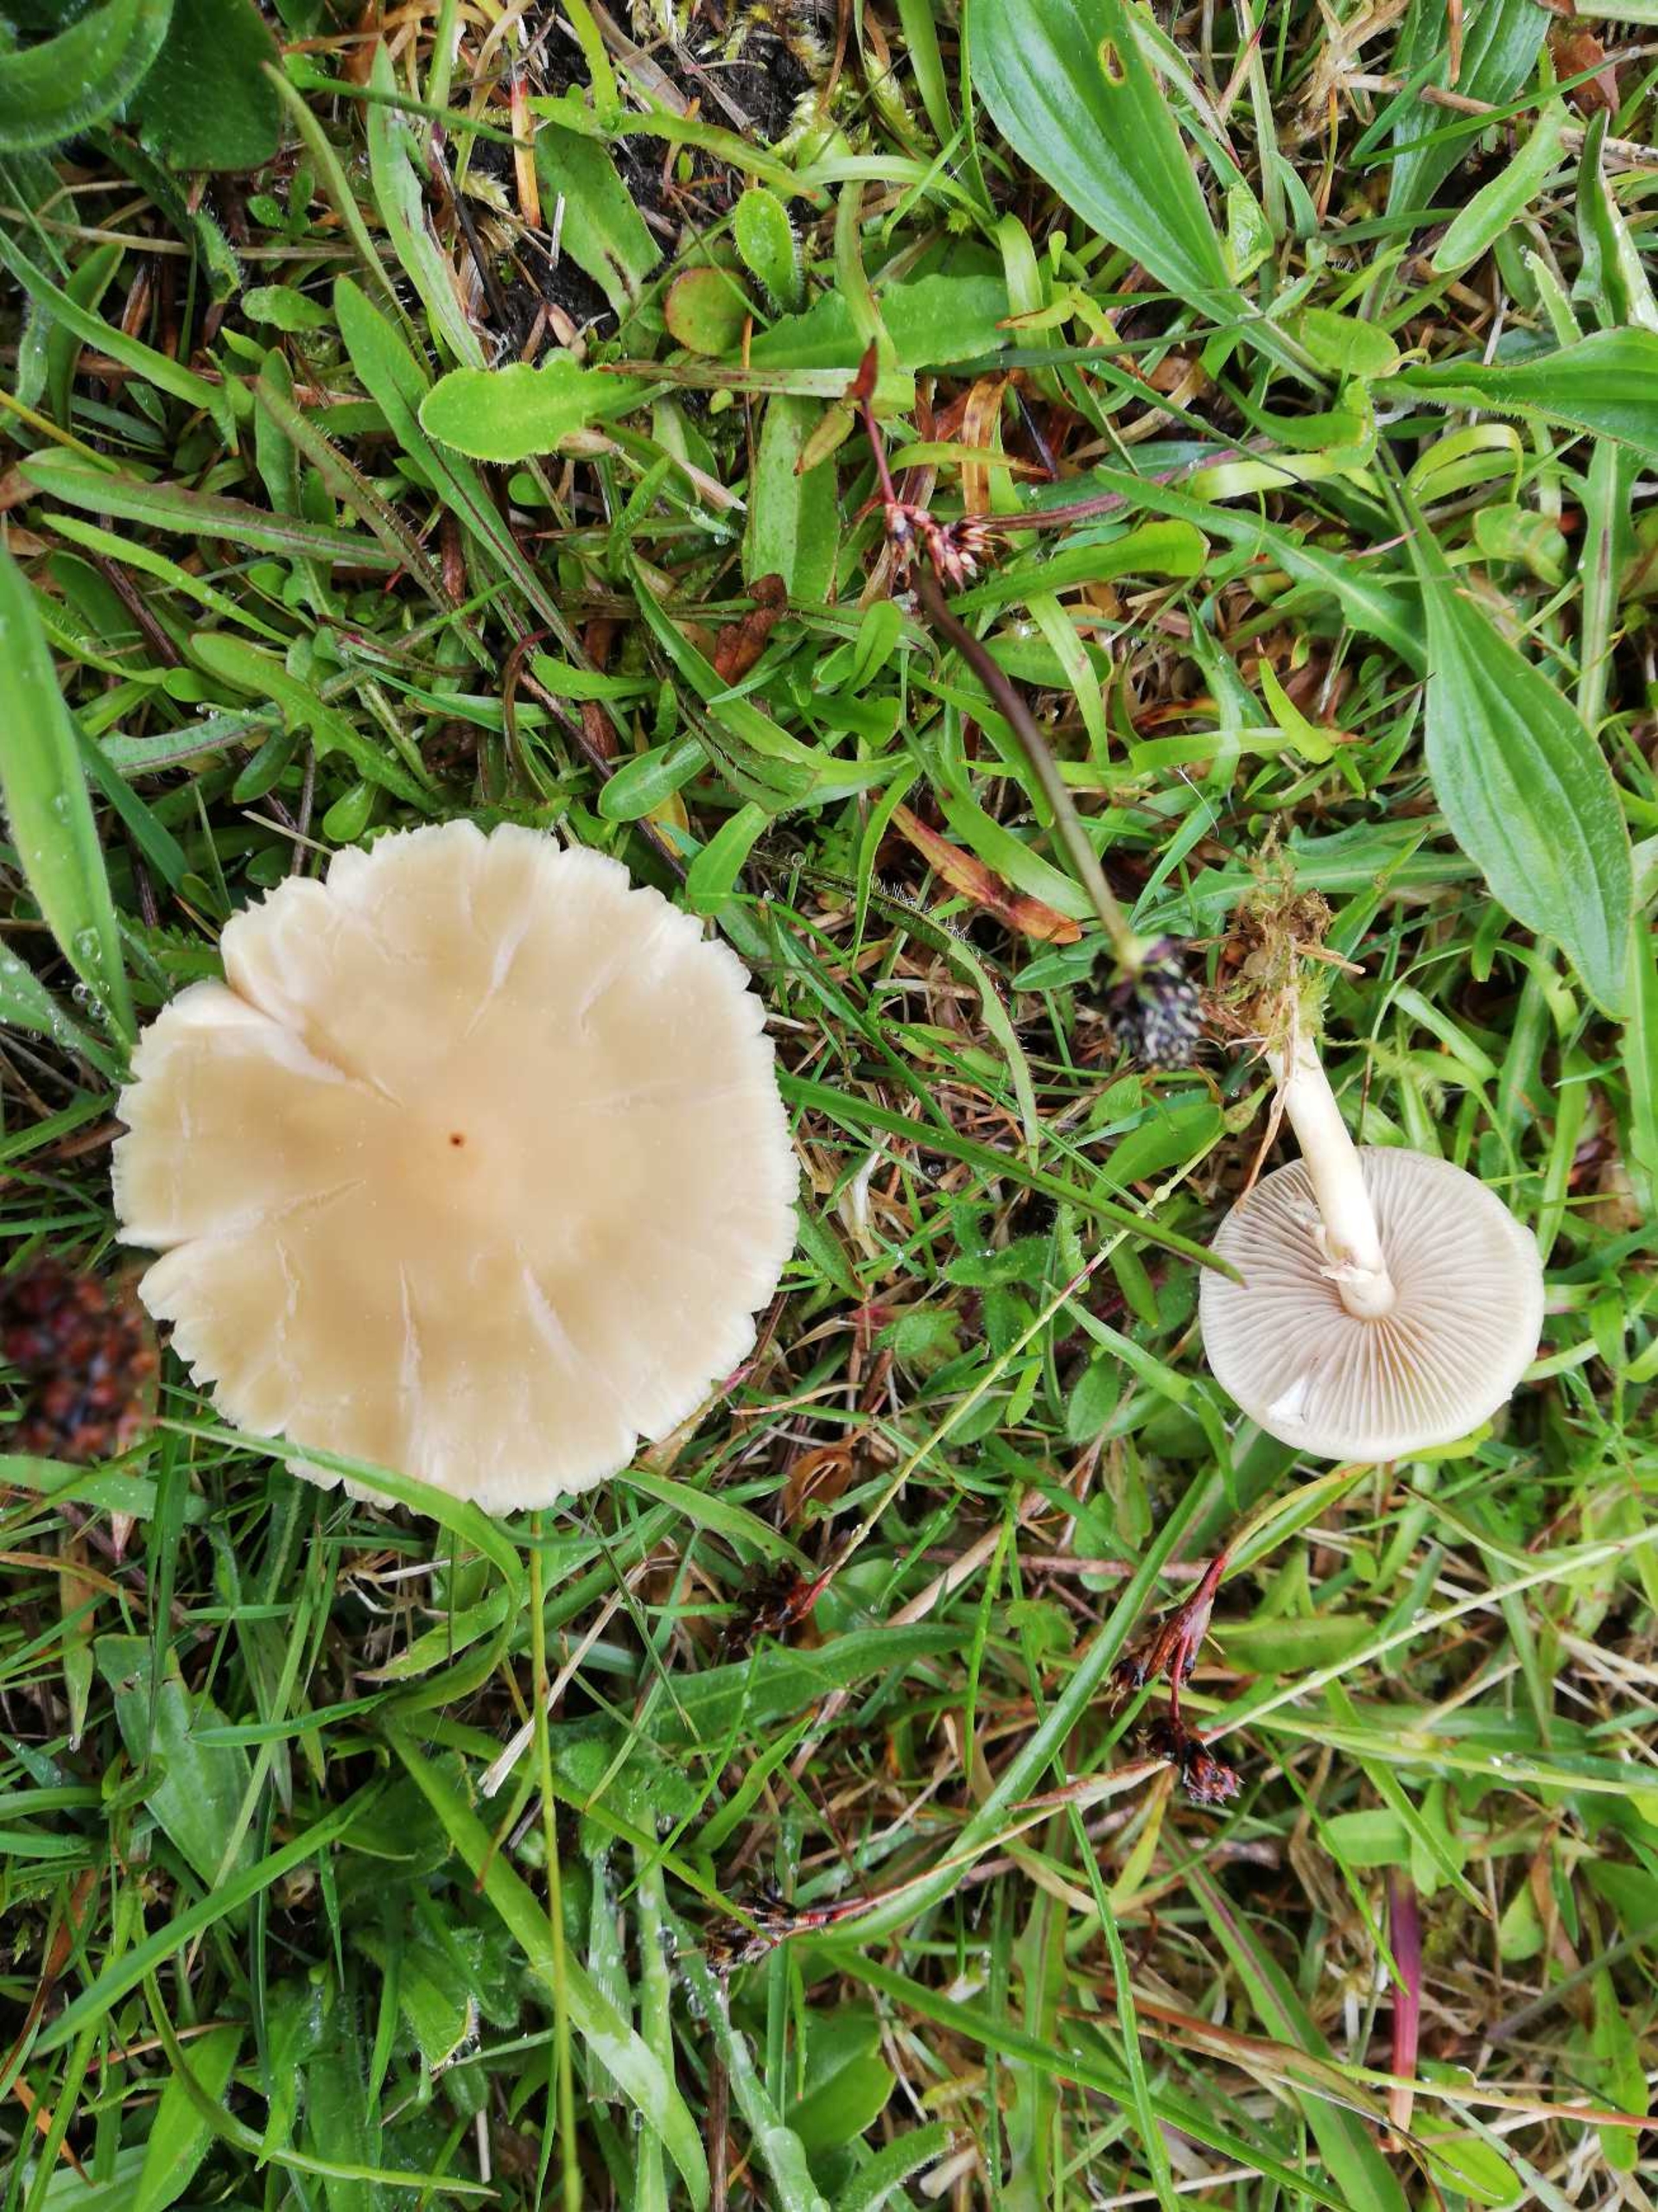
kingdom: Fungi
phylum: Basidiomycota
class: Agaricomycetes
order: Agaricales
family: Strophariaceae
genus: Agrocybe
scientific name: Agrocybe praecox
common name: Tidlig agerhat
